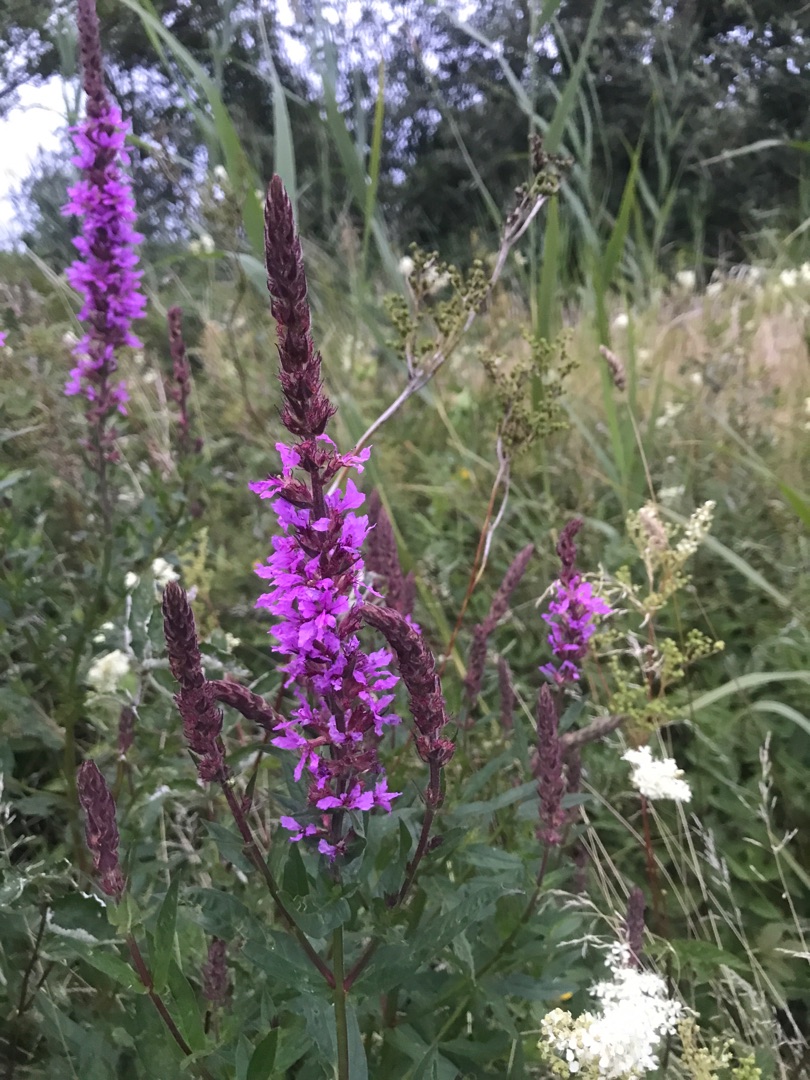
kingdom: Plantae
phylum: Tracheophyta
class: Magnoliopsida
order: Myrtales
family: Lythraceae
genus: Lythrum
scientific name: Lythrum salicaria
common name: Kattehale
